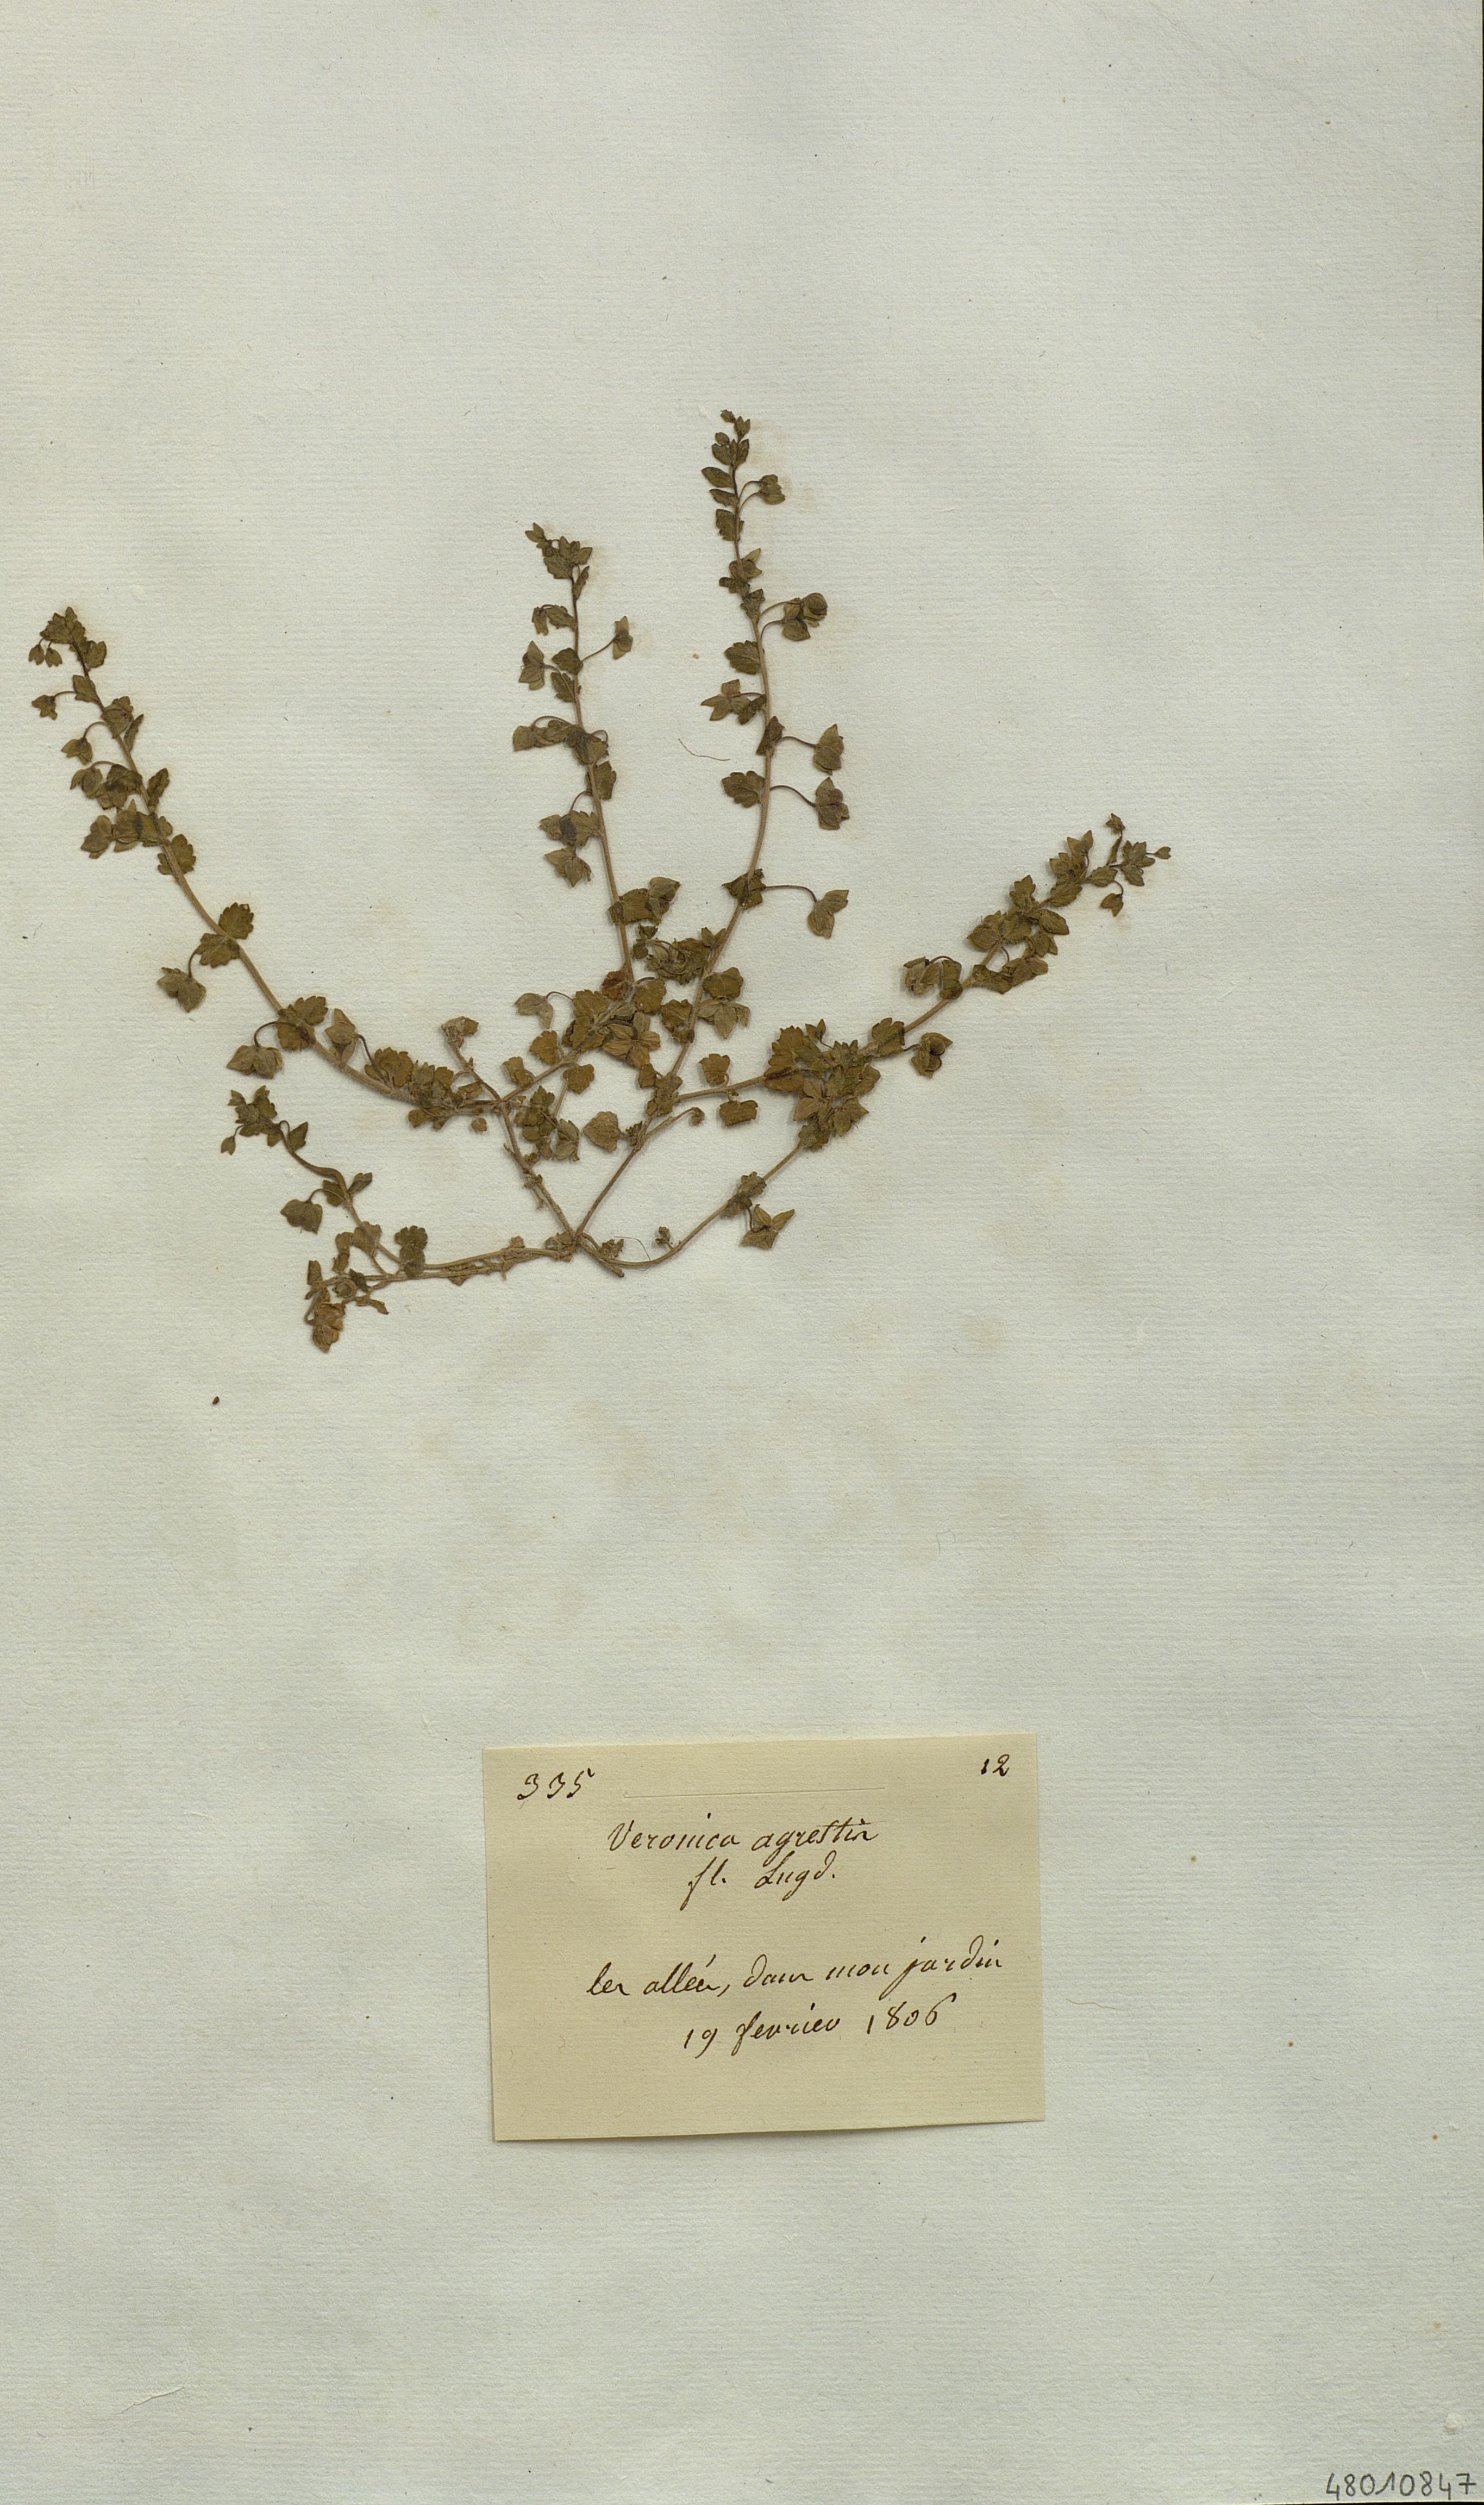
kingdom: Plantae
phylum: Tracheophyta
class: Magnoliopsida
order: Lamiales
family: Plantaginaceae
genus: Veronica
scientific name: Veronica agrestis
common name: Green field-speedwell
